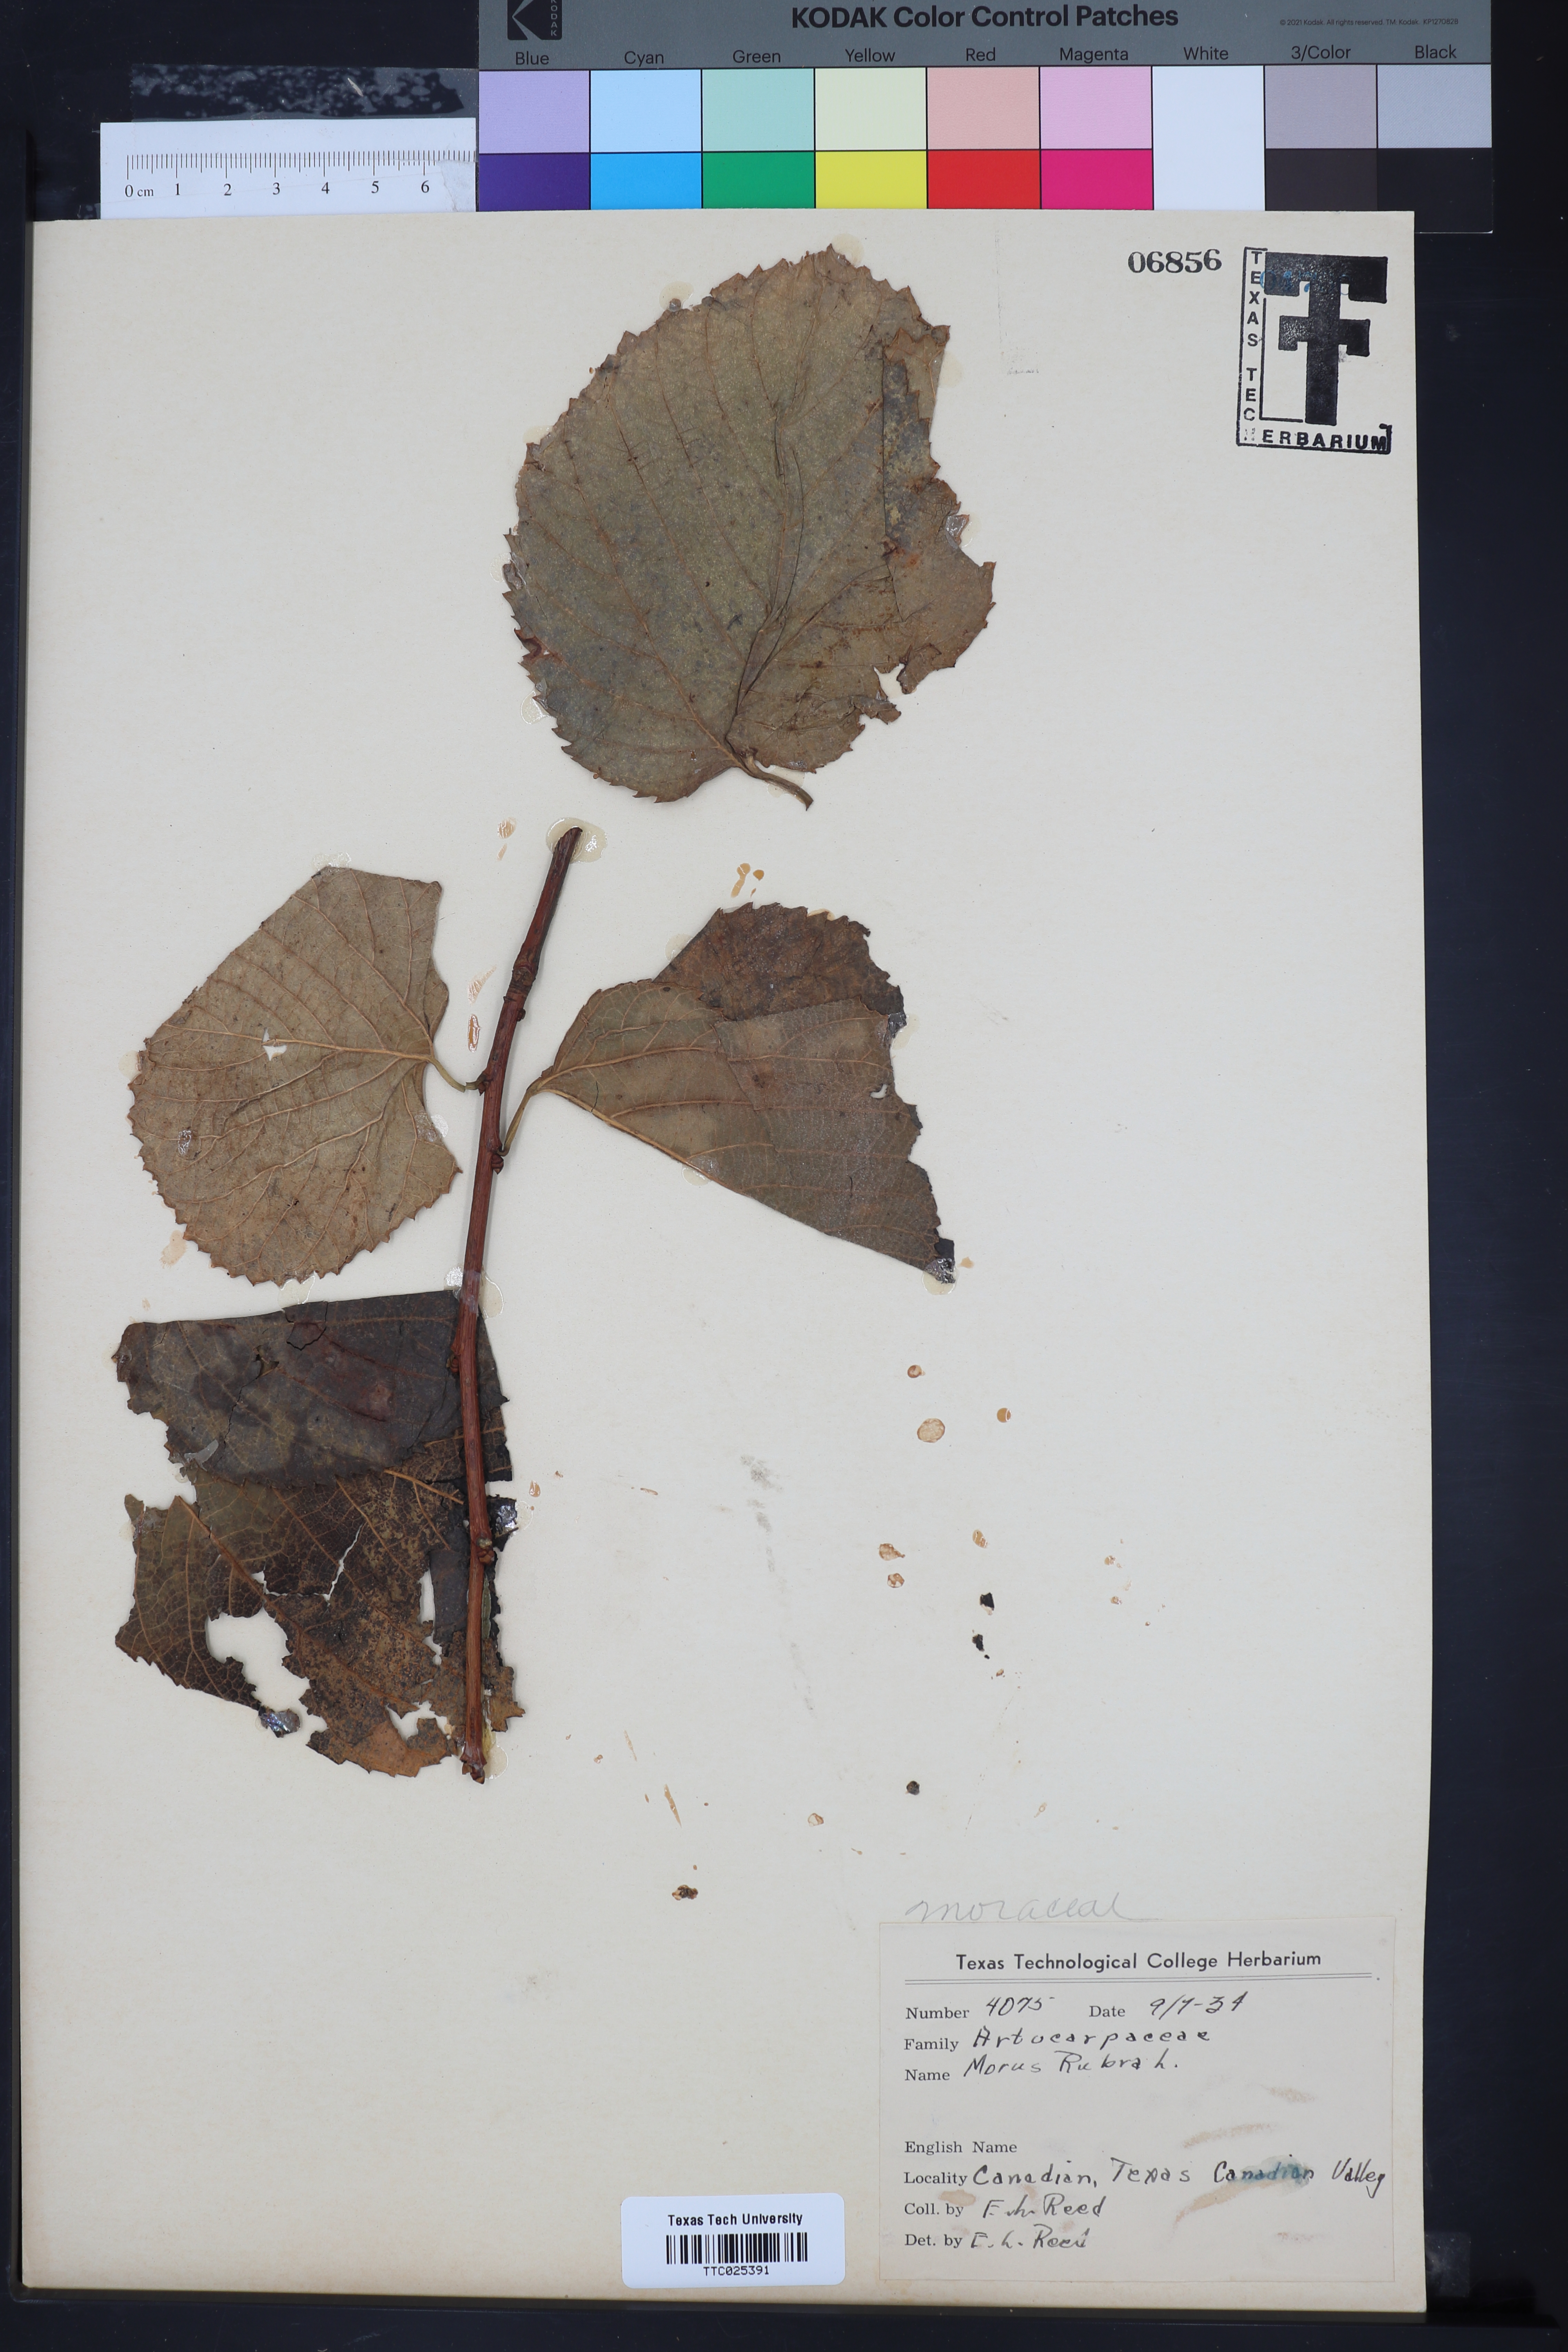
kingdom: Plantae
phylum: Tracheophyta
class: Magnoliopsida
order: Rosales
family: Moraceae
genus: Morus
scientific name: Morus rubra
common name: Red mulberry
